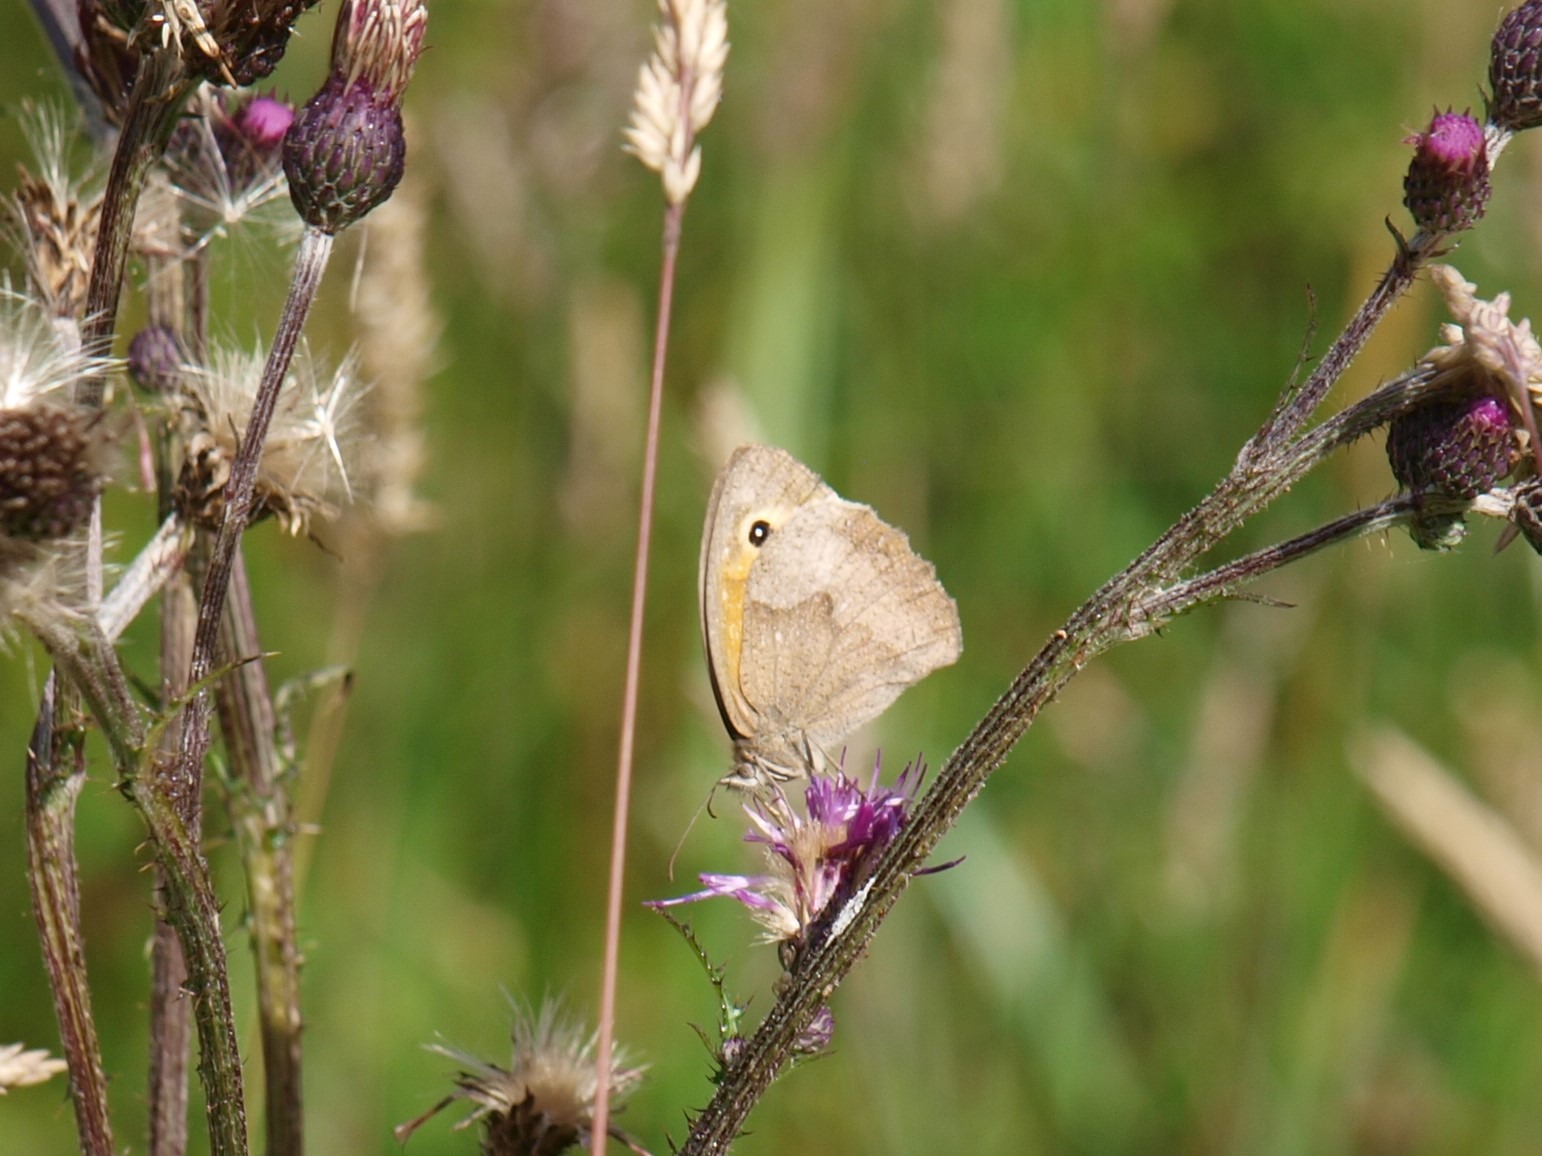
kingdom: Animalia
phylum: Arthropoda
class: Insecta
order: Lepidoptera
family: Nymphalidae
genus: Maniola
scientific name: Maniola jurtina
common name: Græsrandøje
